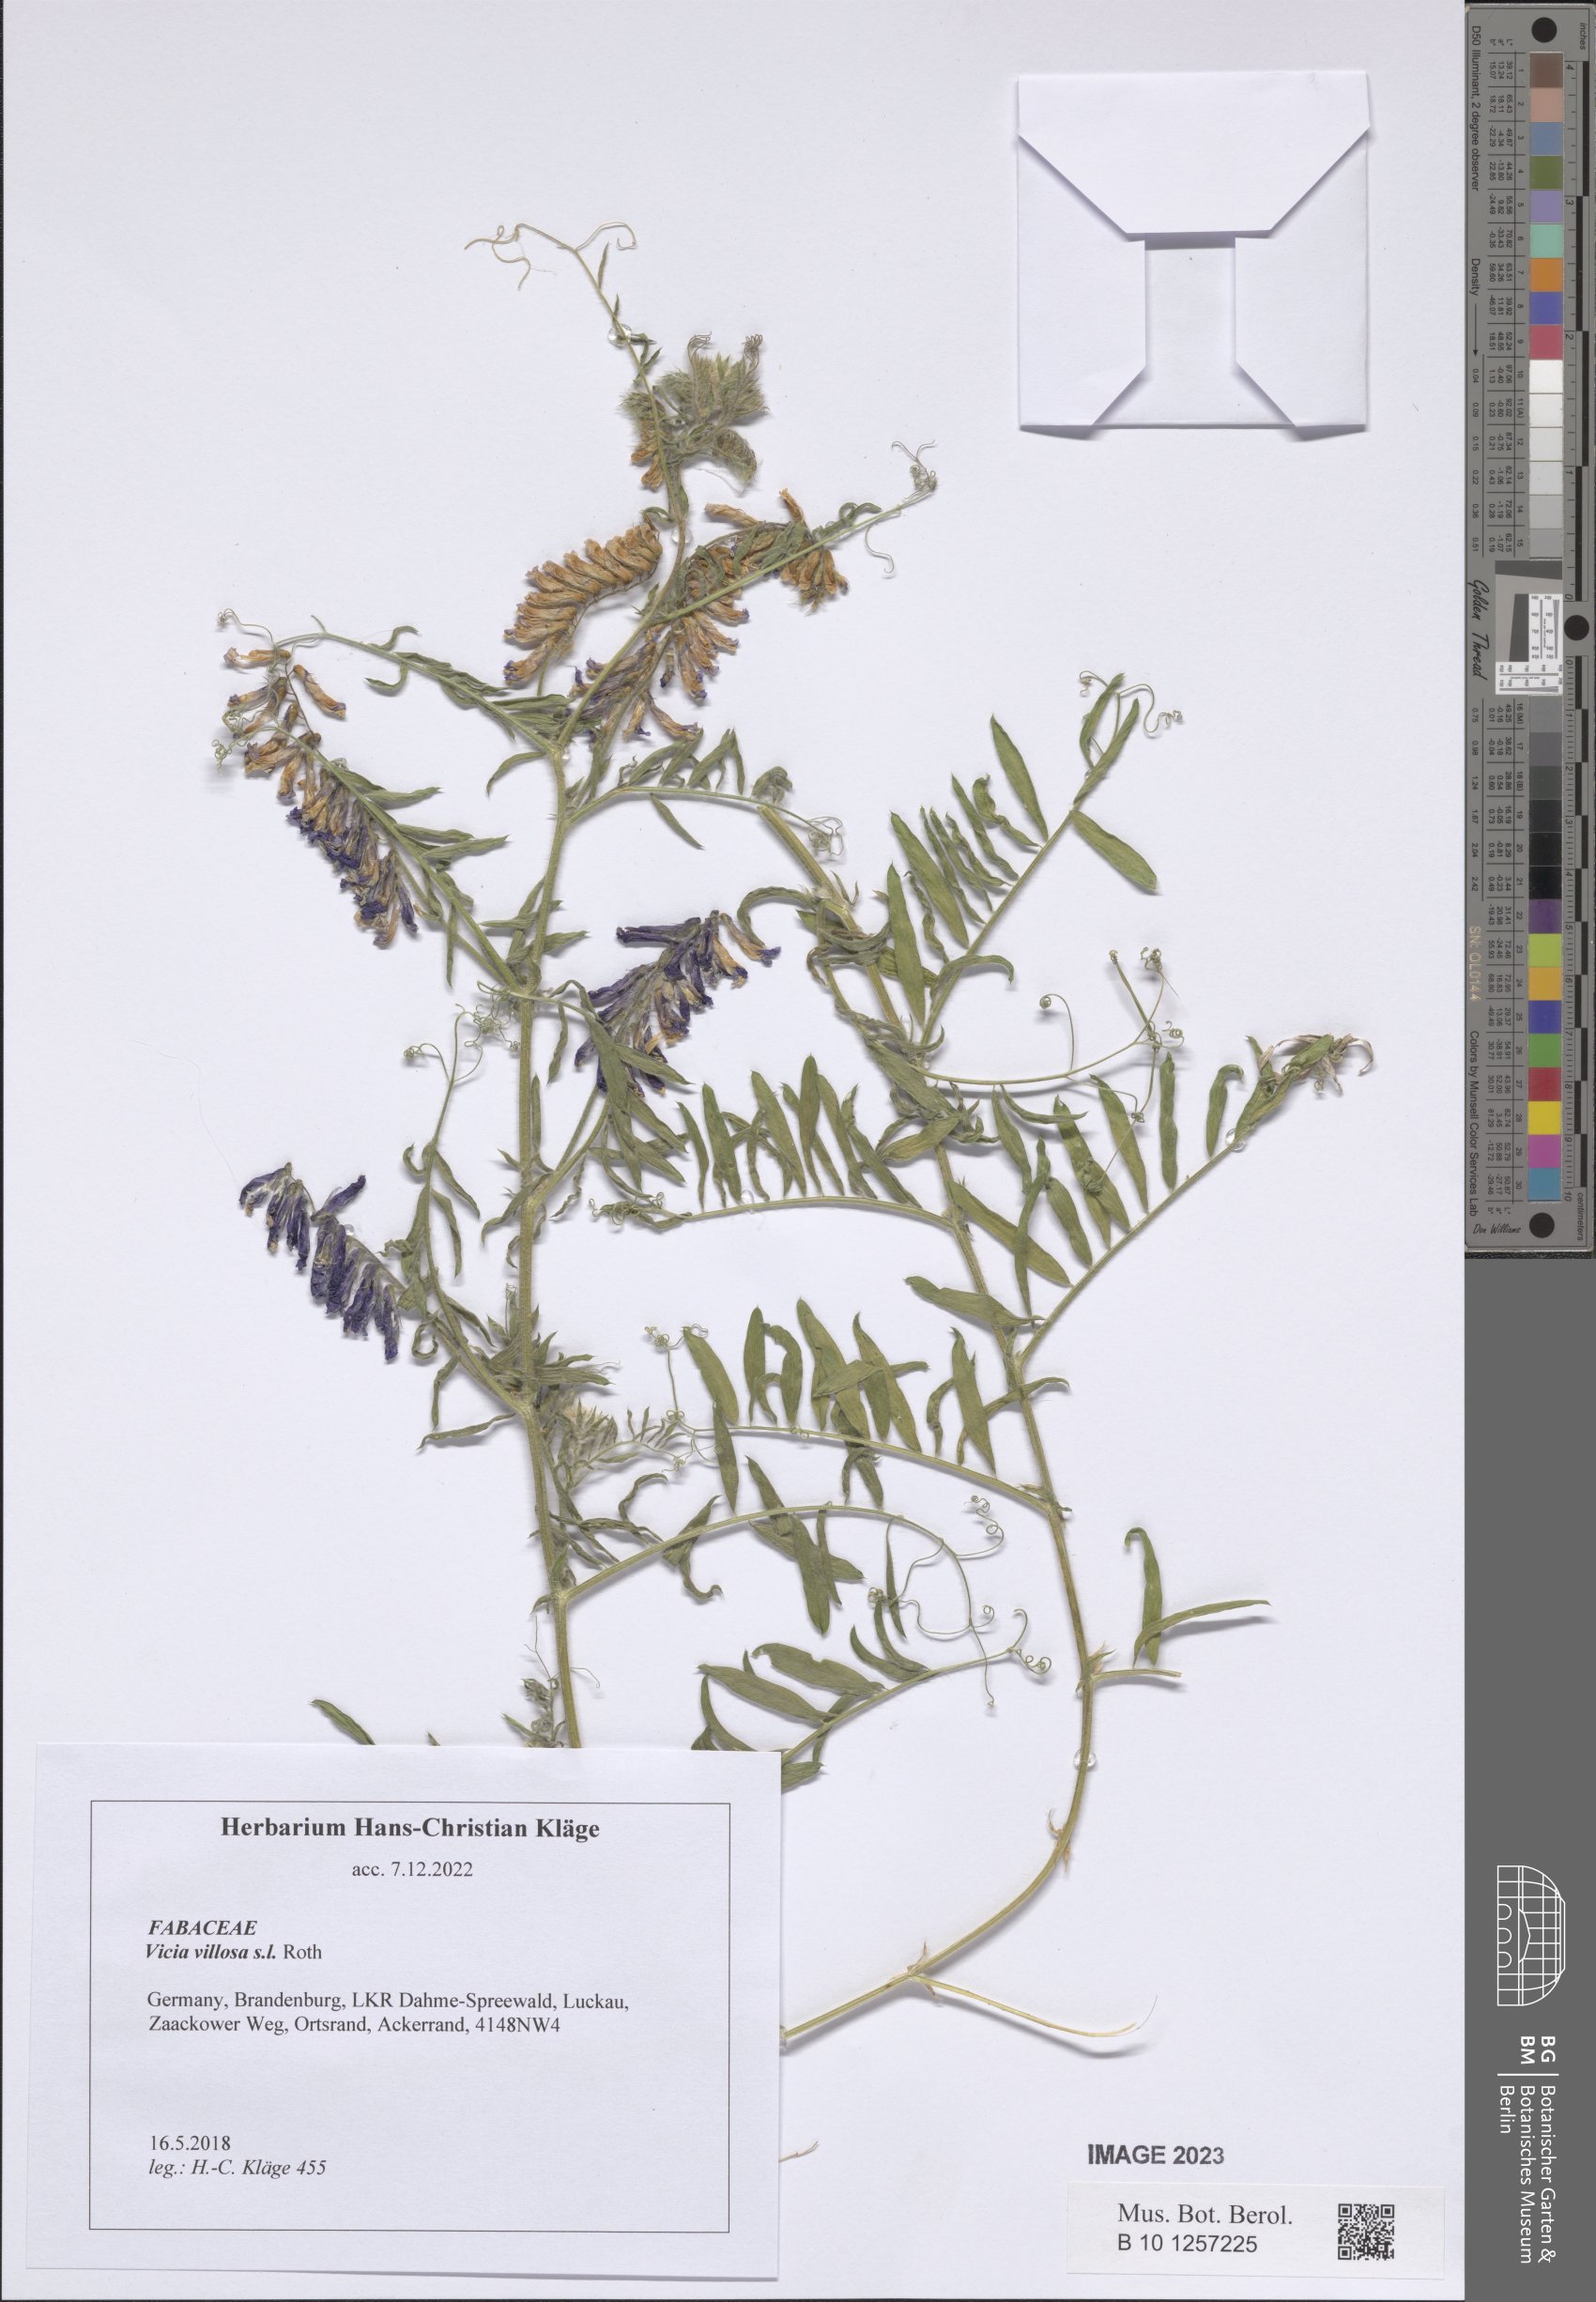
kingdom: Plantae
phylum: Tracheophyta
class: Magnoliopsida
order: Fabales
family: Fabaceae
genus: Vicia
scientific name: Vicia villosa
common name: Fodder vetch
